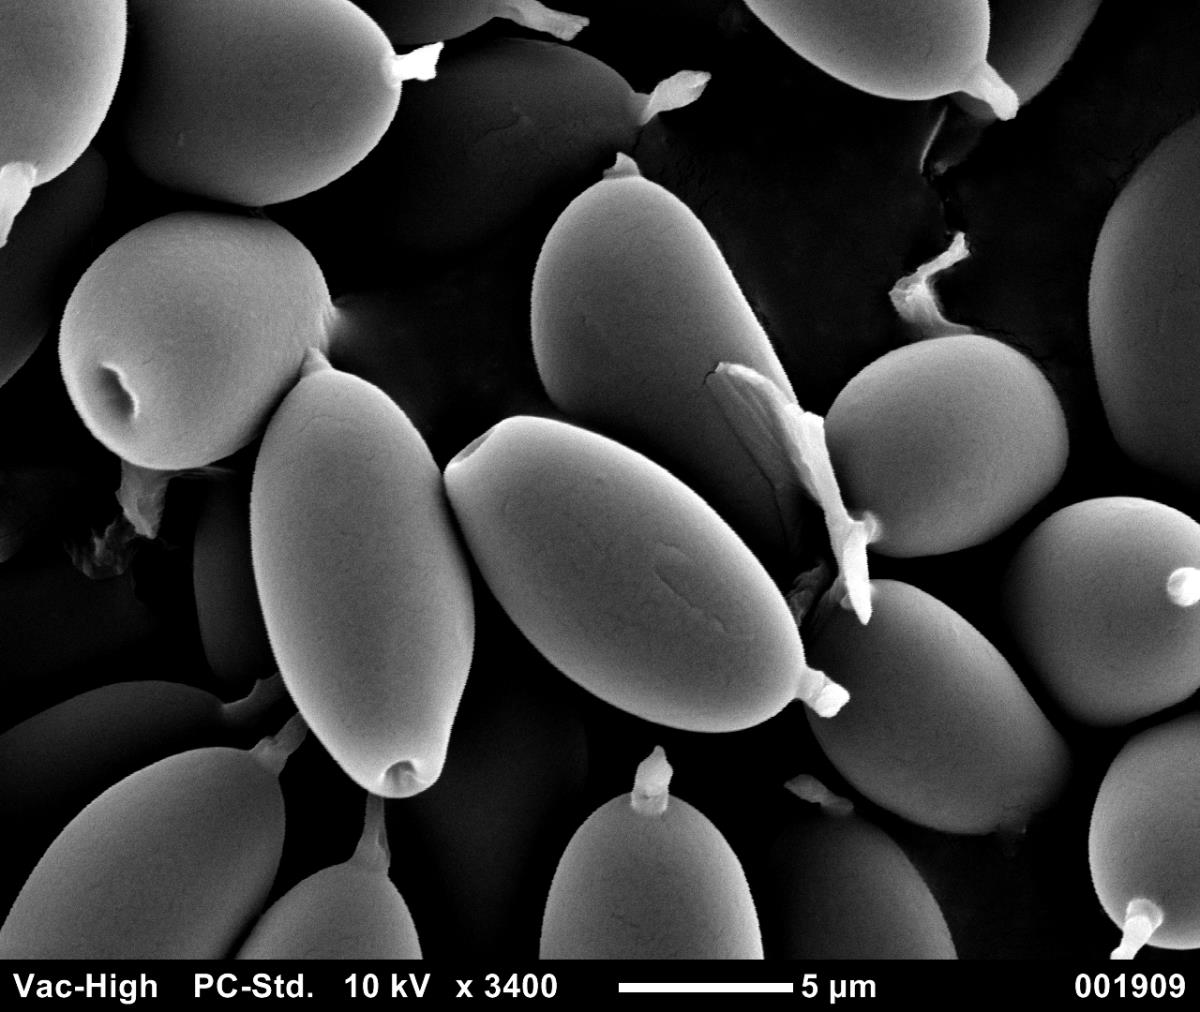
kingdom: Fungi
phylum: Basidiomycota
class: Agaricomycetes
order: Agaricales
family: Agaricaceae
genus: Clavogaster
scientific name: Clavogaster virescens
